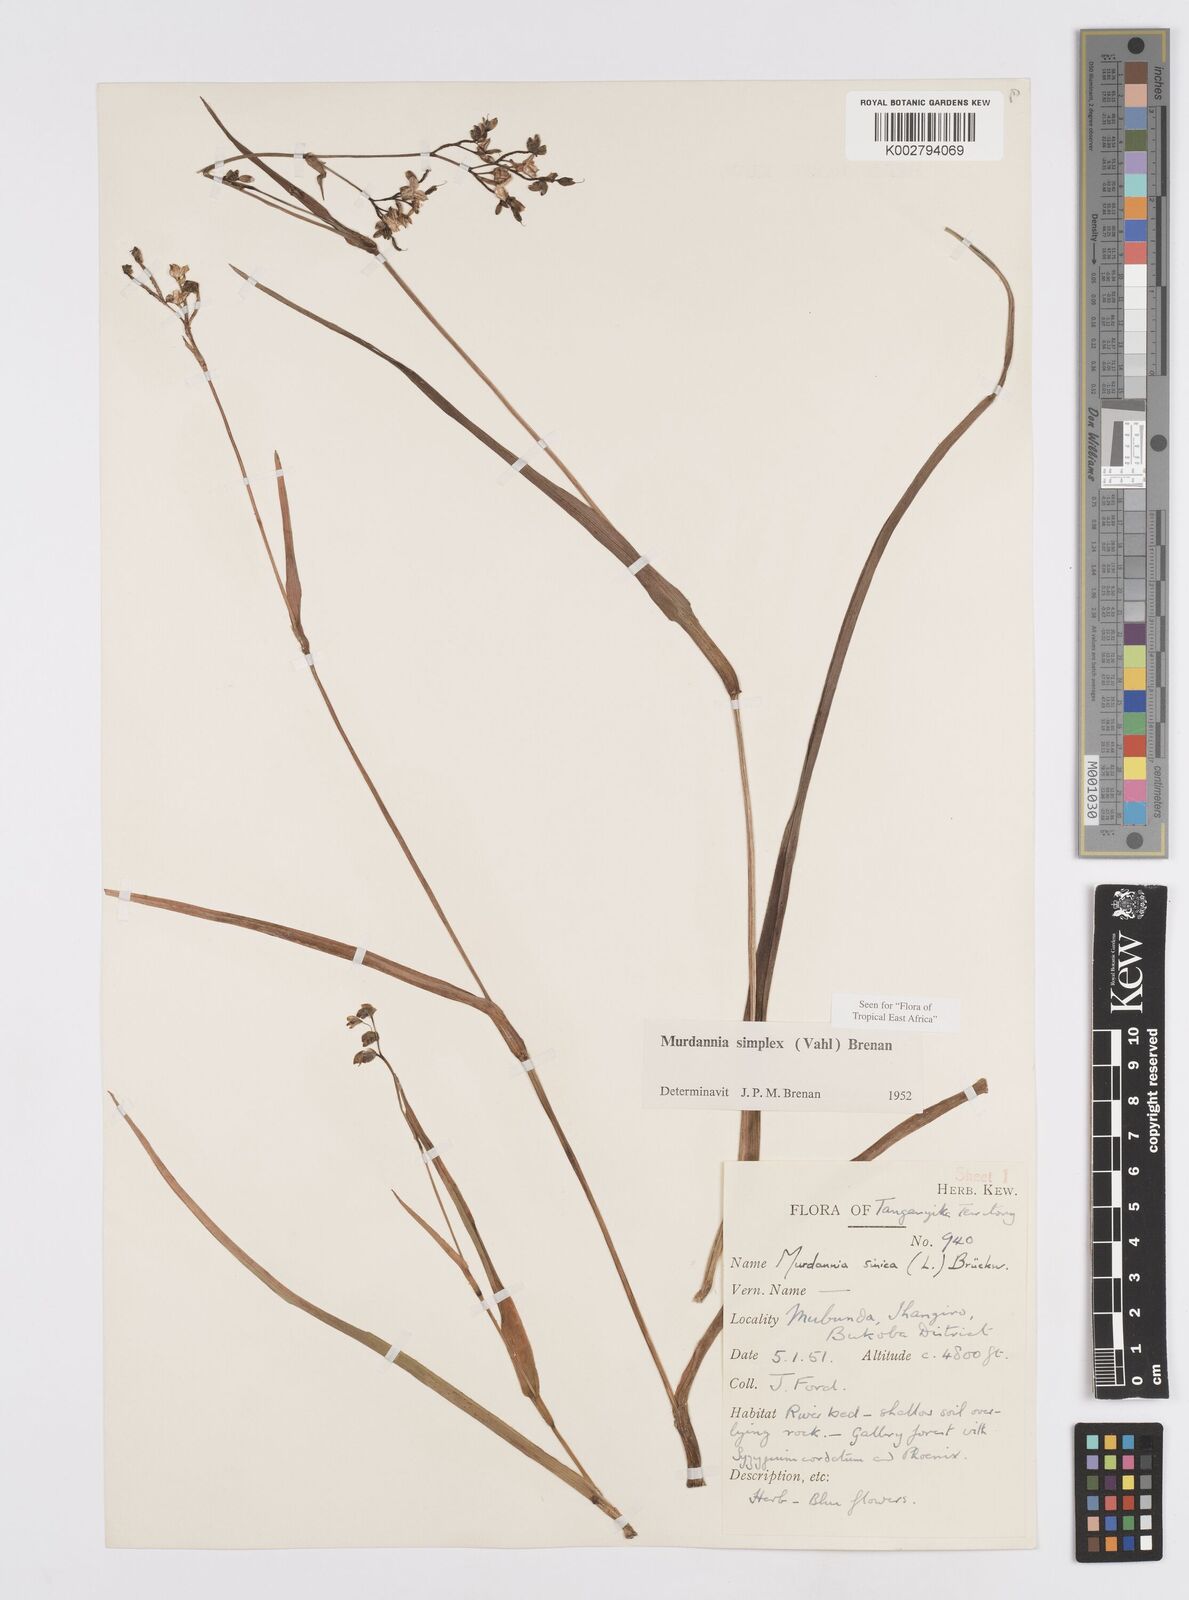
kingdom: Plantae
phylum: Tracheophyta
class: Liliopsida
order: Commelinales
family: Commelinaceae
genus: Murdannia
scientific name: Murdannia simplex
